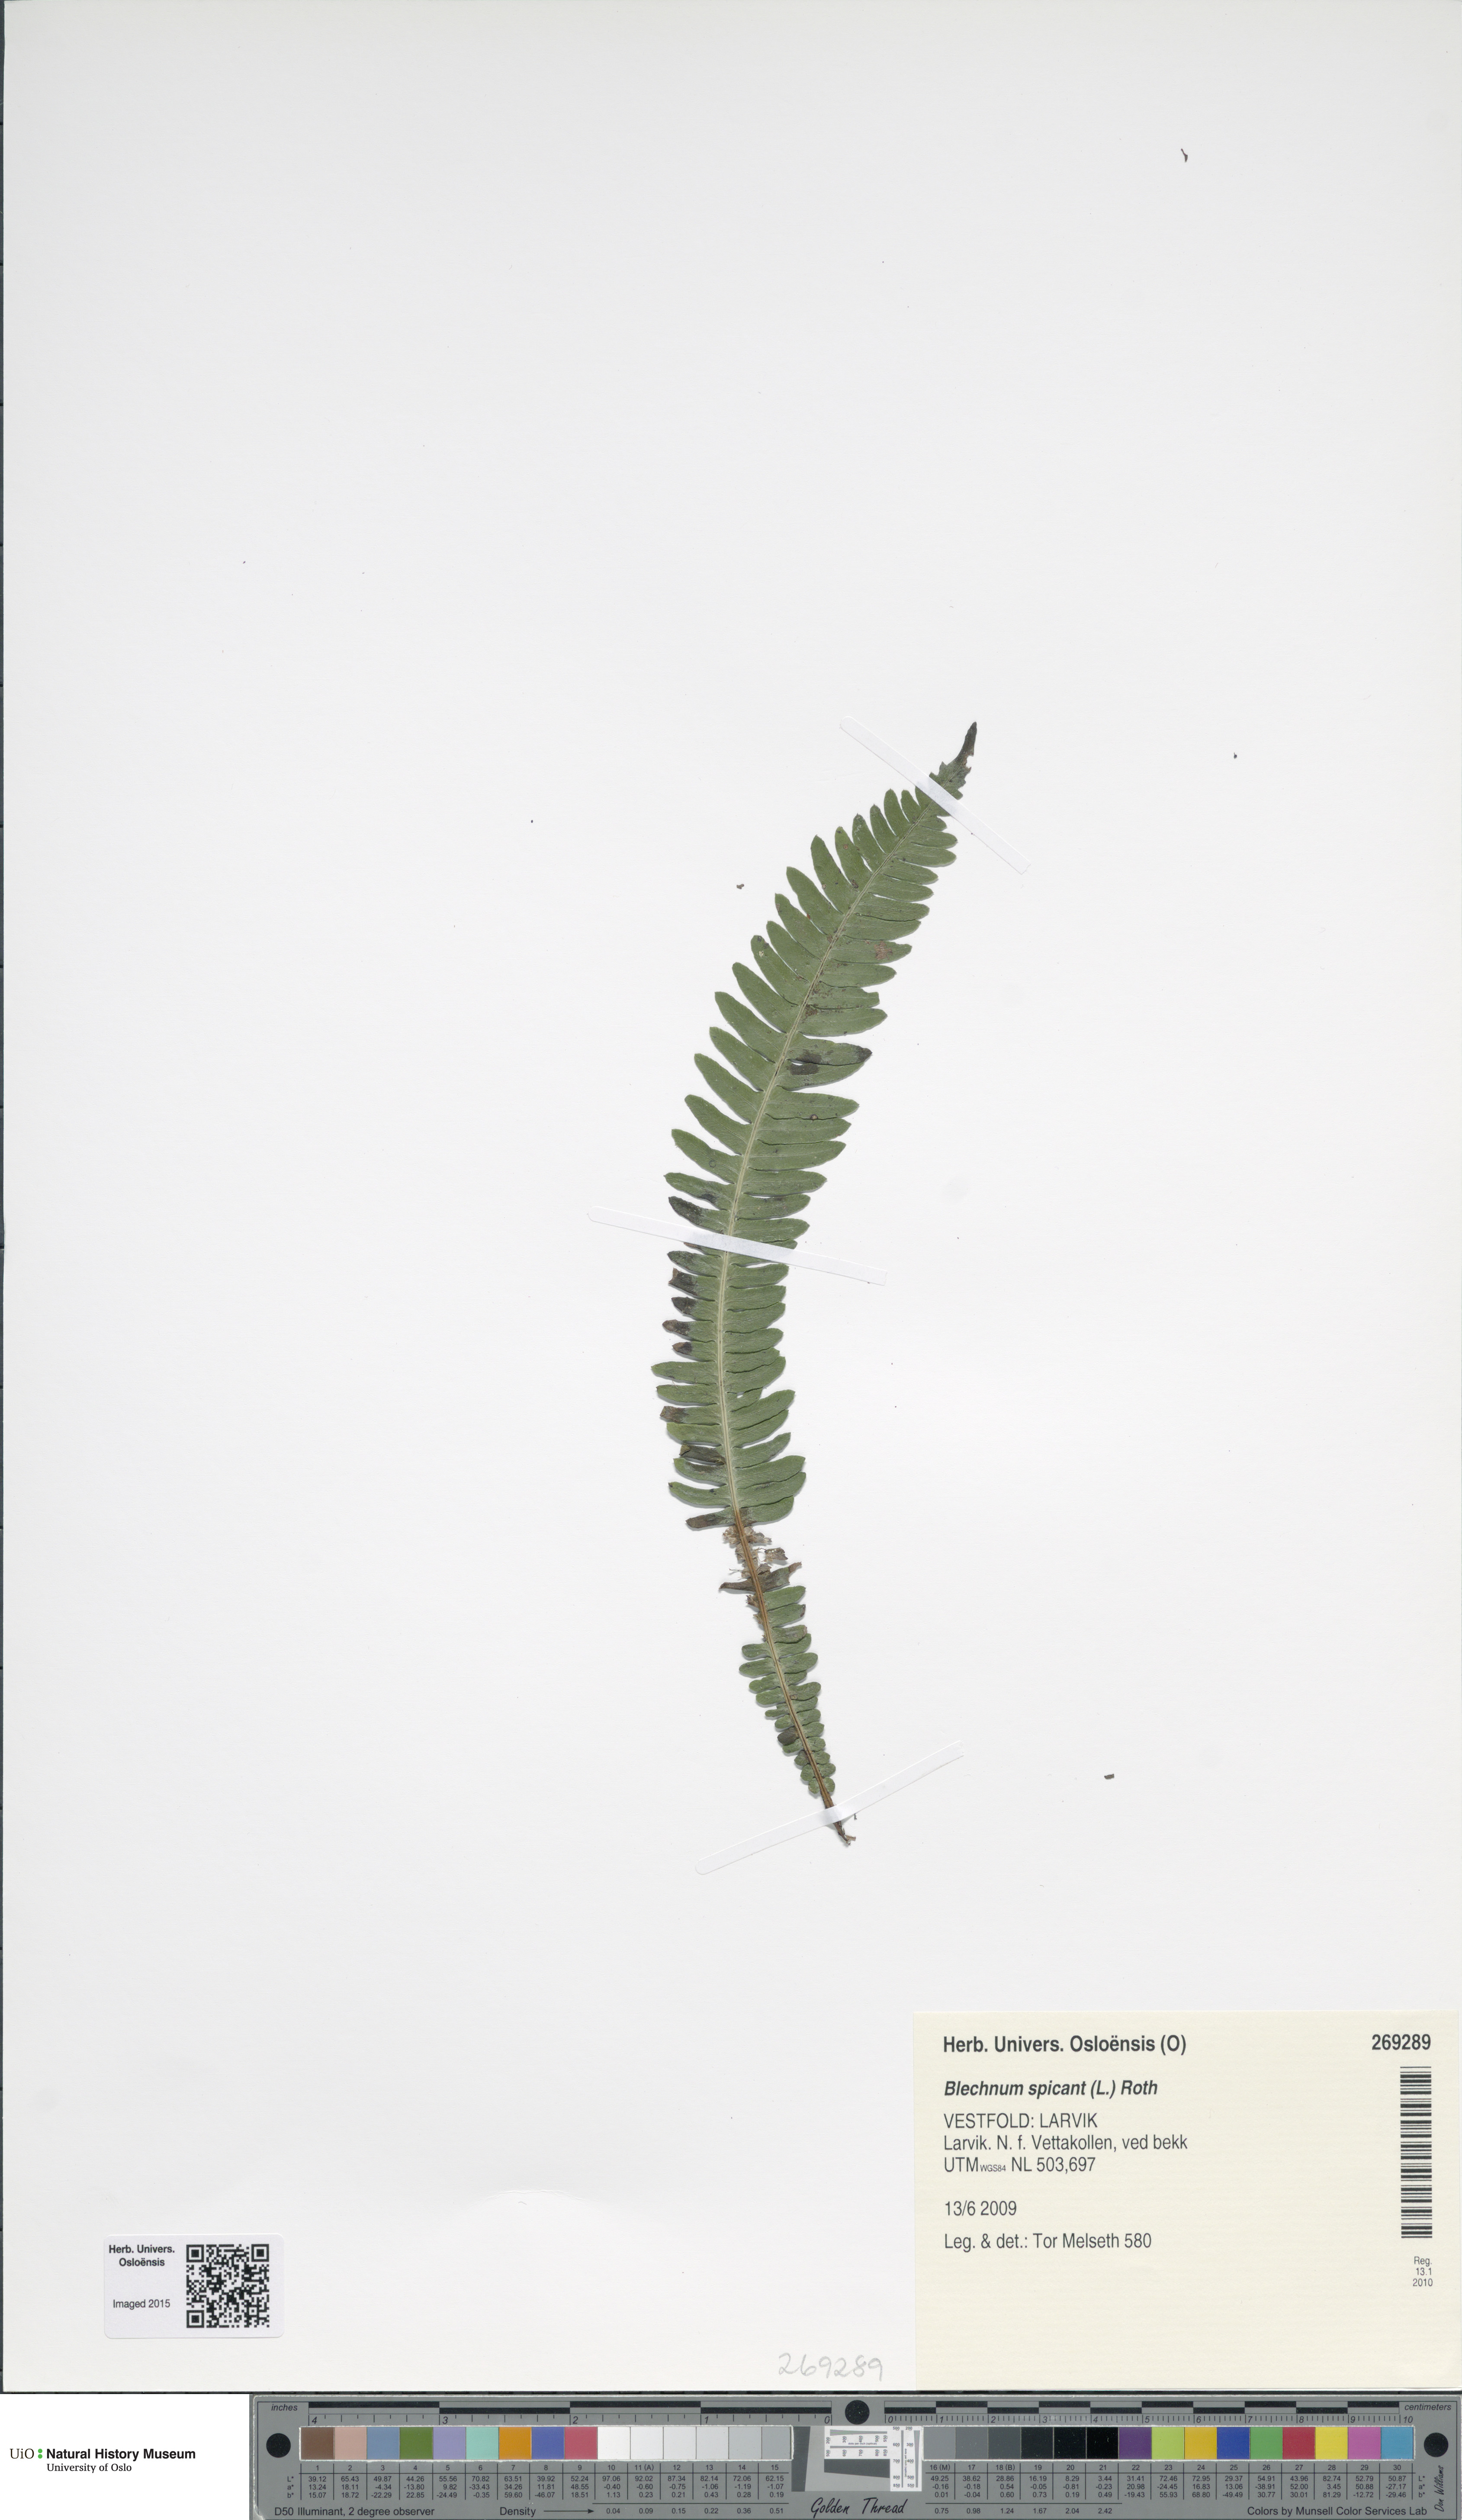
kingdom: Plantae
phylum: Tracheophyta
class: Polypodiopsida
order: Polypodiales
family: Blechnaceae
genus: Struthiopteris
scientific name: Struthiopteris spicant
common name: Deer fern
